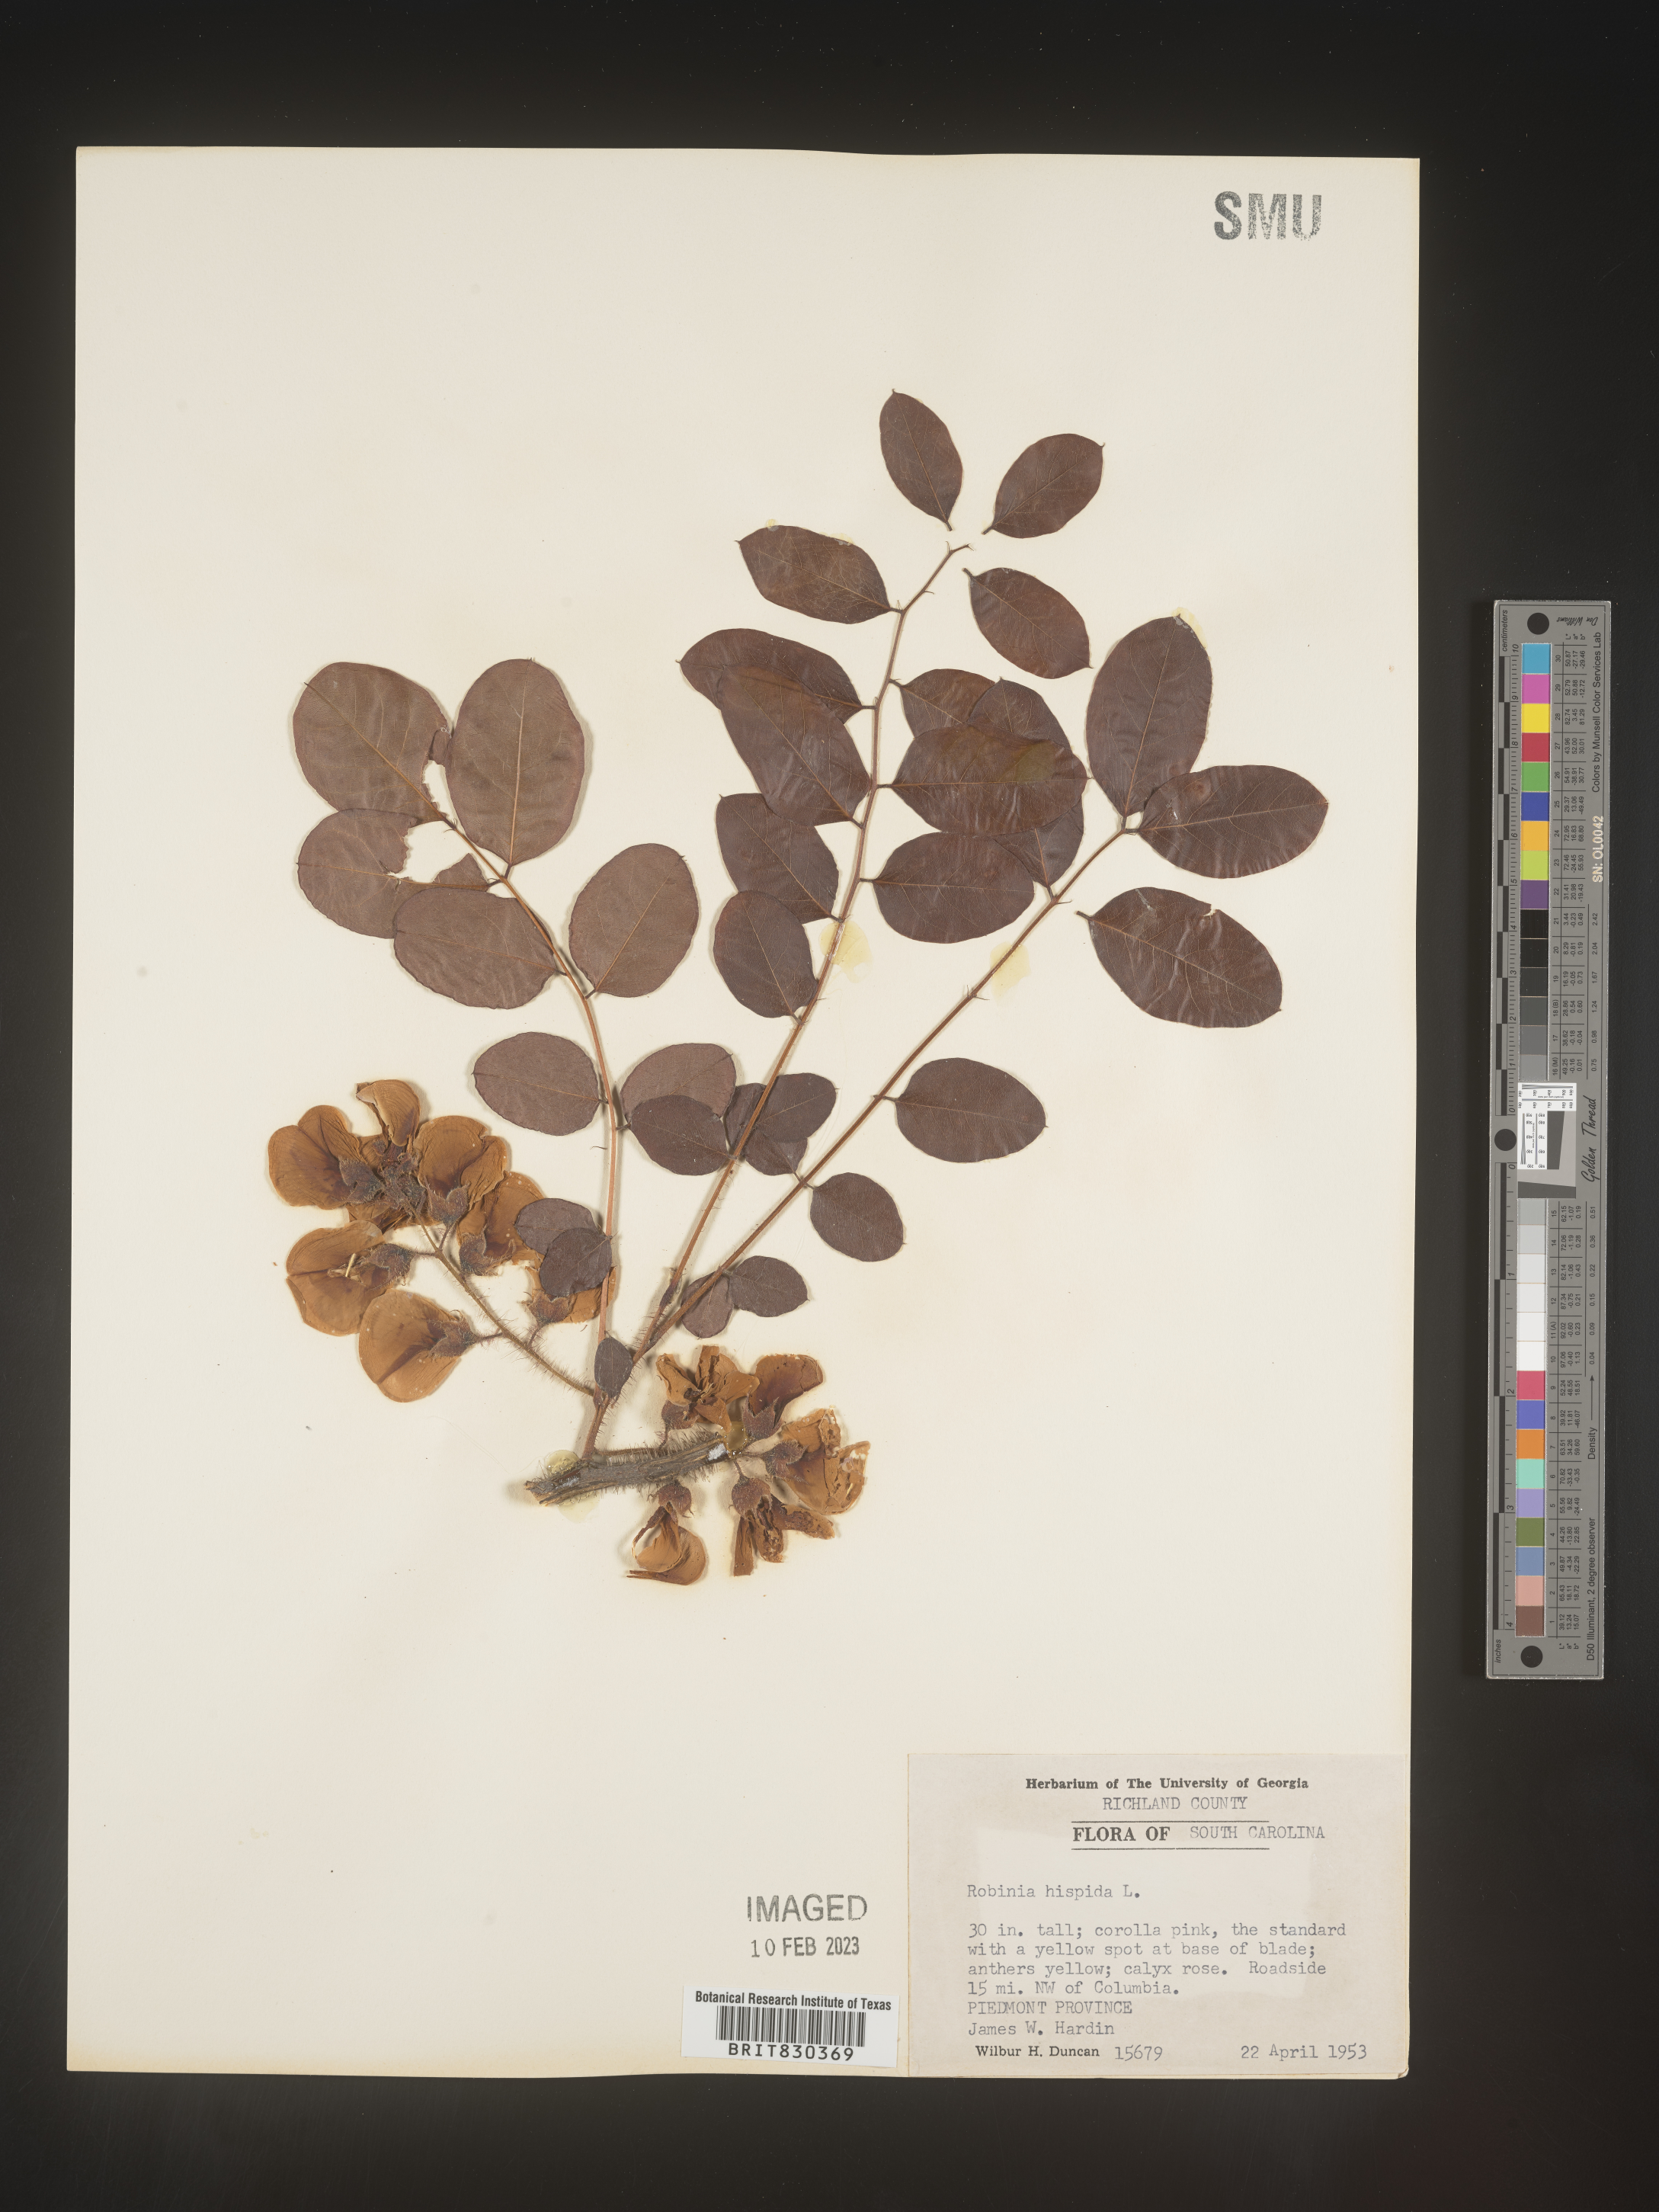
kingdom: Plantae
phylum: Tracheophyta
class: Magnoliopsida
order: Fabales
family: Fabaceae
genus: Robinia
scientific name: Robinia hispida
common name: Bristly locust
